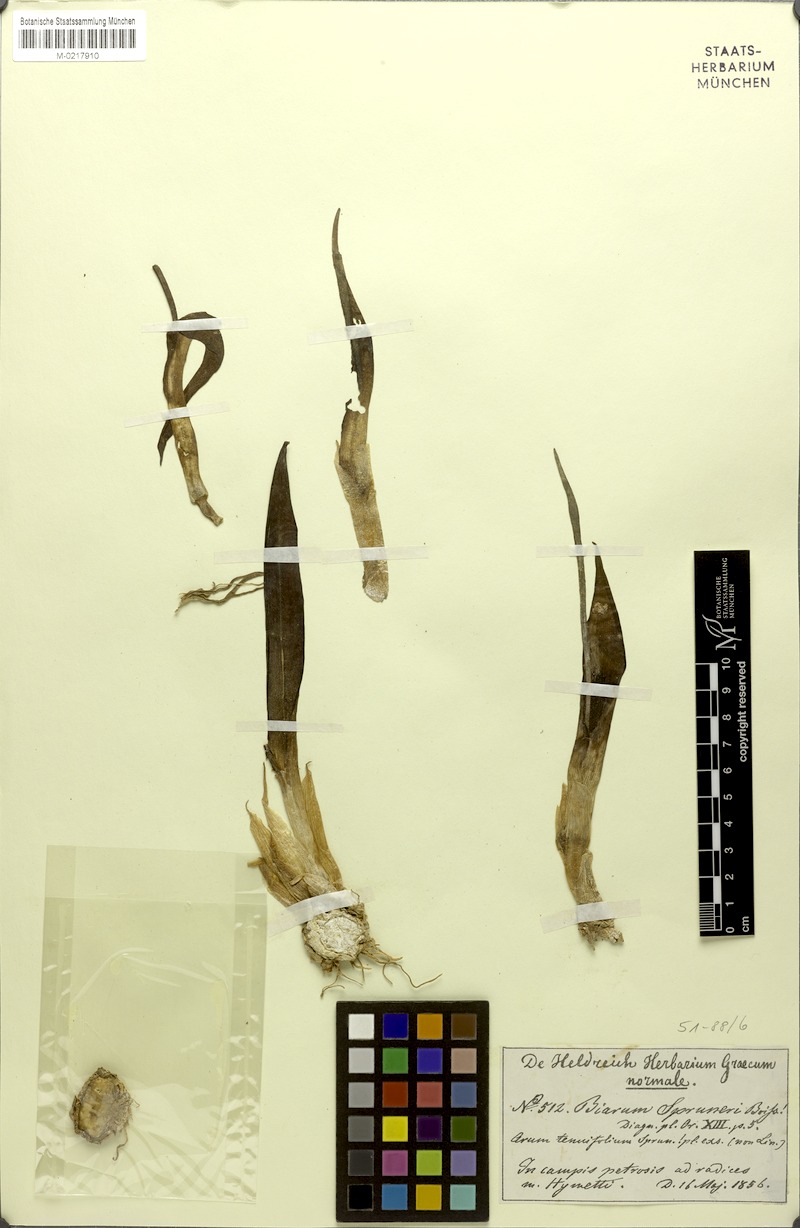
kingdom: Plantae
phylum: Tracheophyta
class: Liliopsida
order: Alismatales
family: Araceae
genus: Biarum
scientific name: Biarum rhopalospadix
